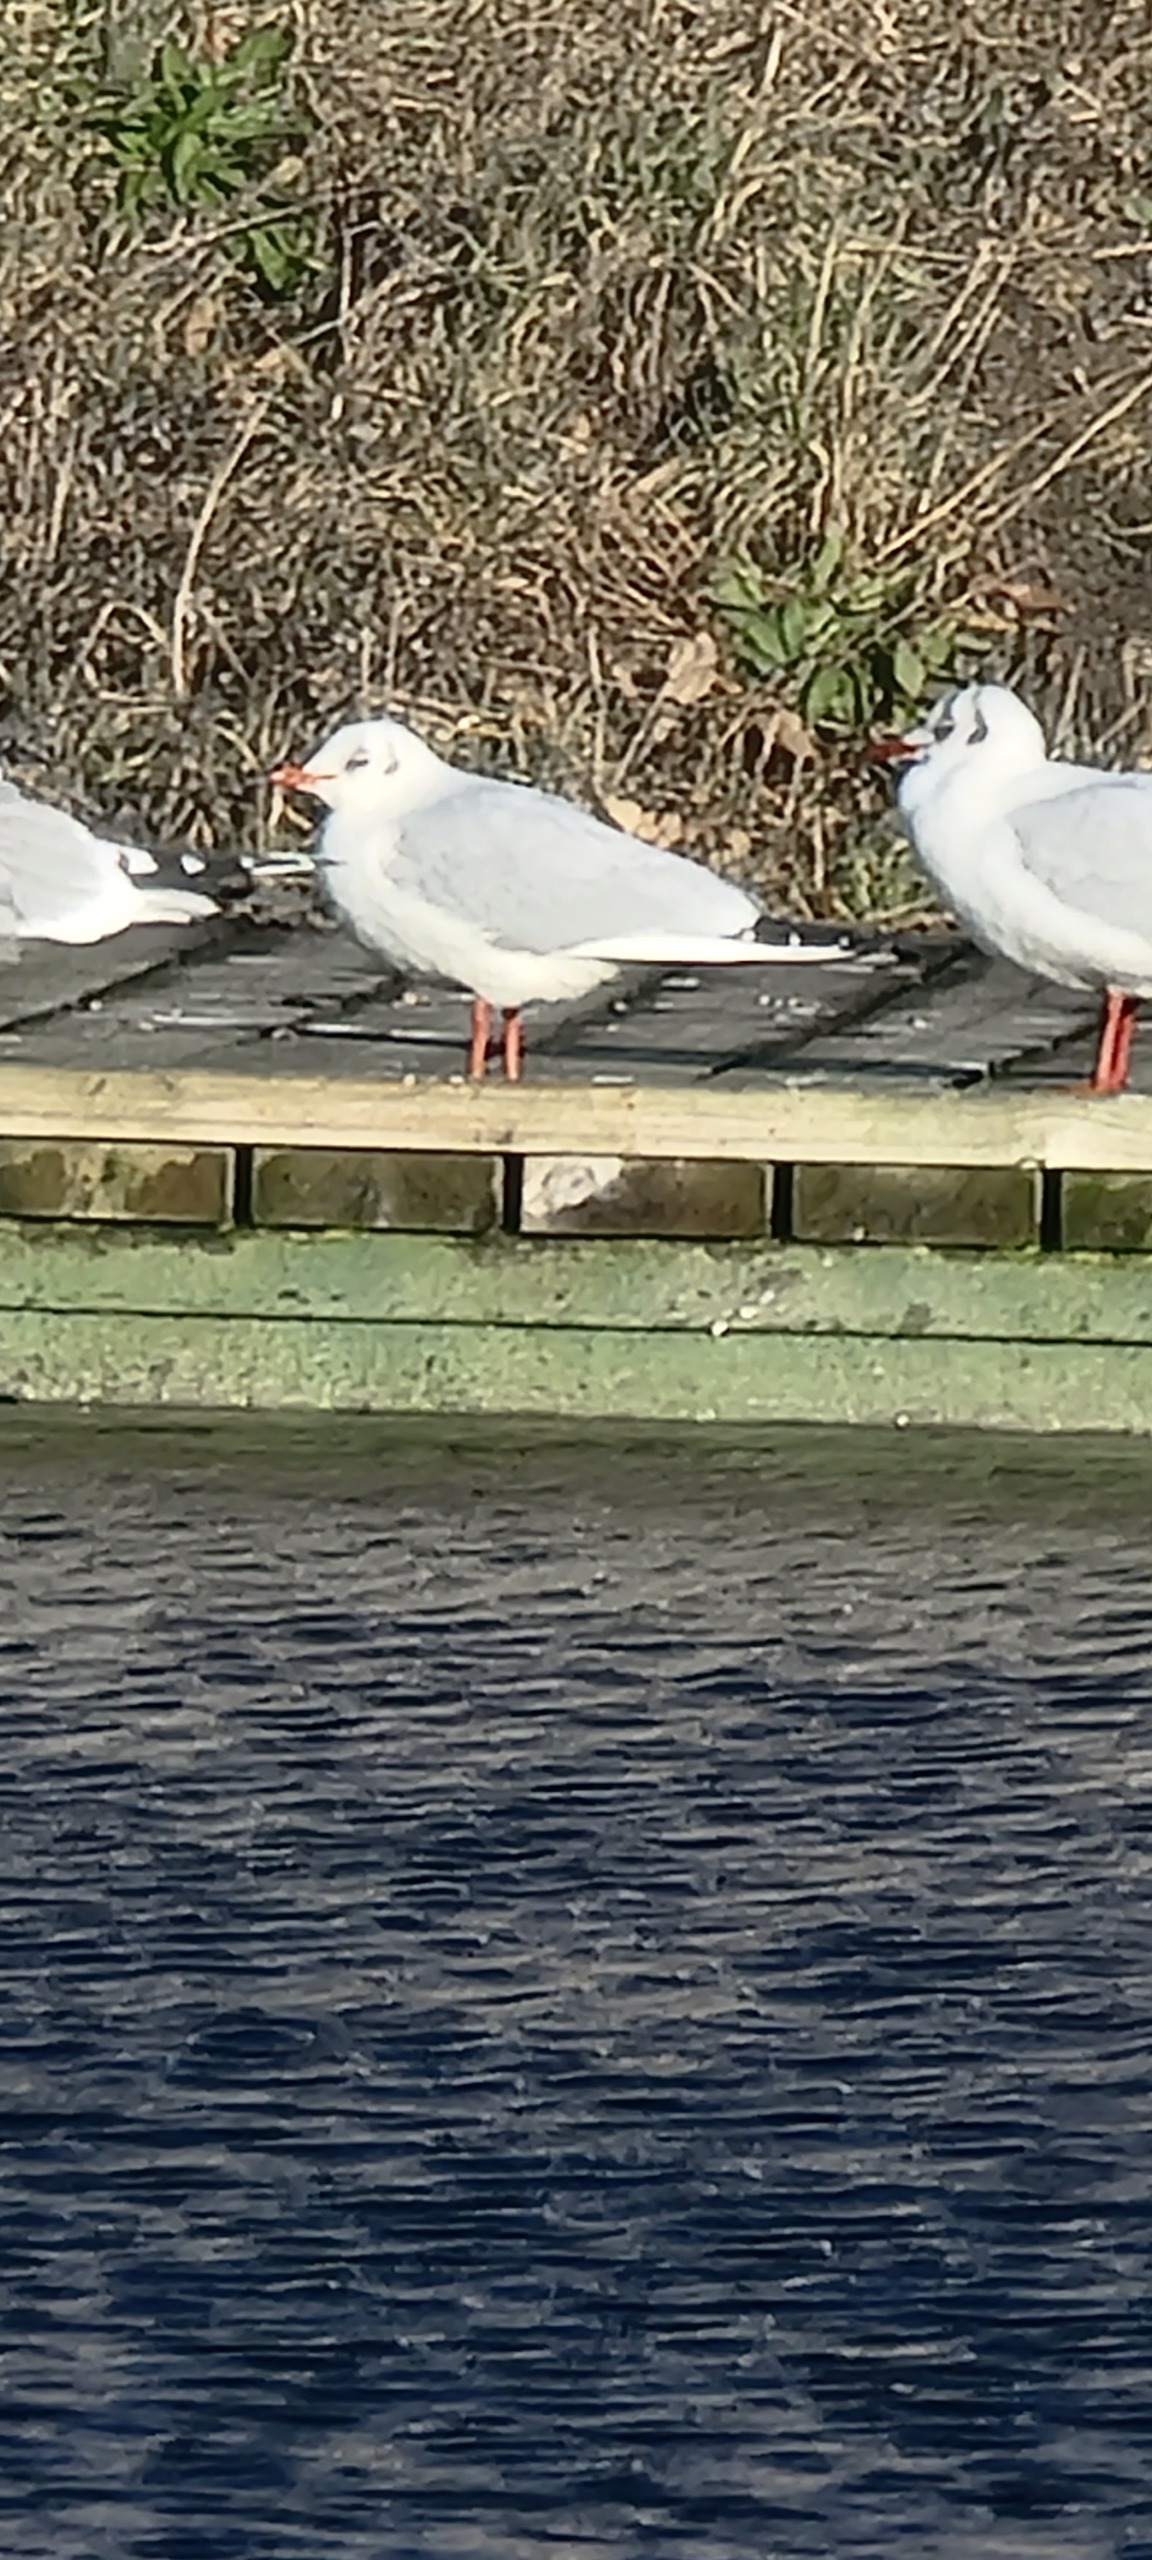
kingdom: Animalia
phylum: Chordata
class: Aves
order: Charadriiformes
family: Laridae
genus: Chroicocephalus
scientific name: Chroicocephalus ridibundus
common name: Hættemåge
